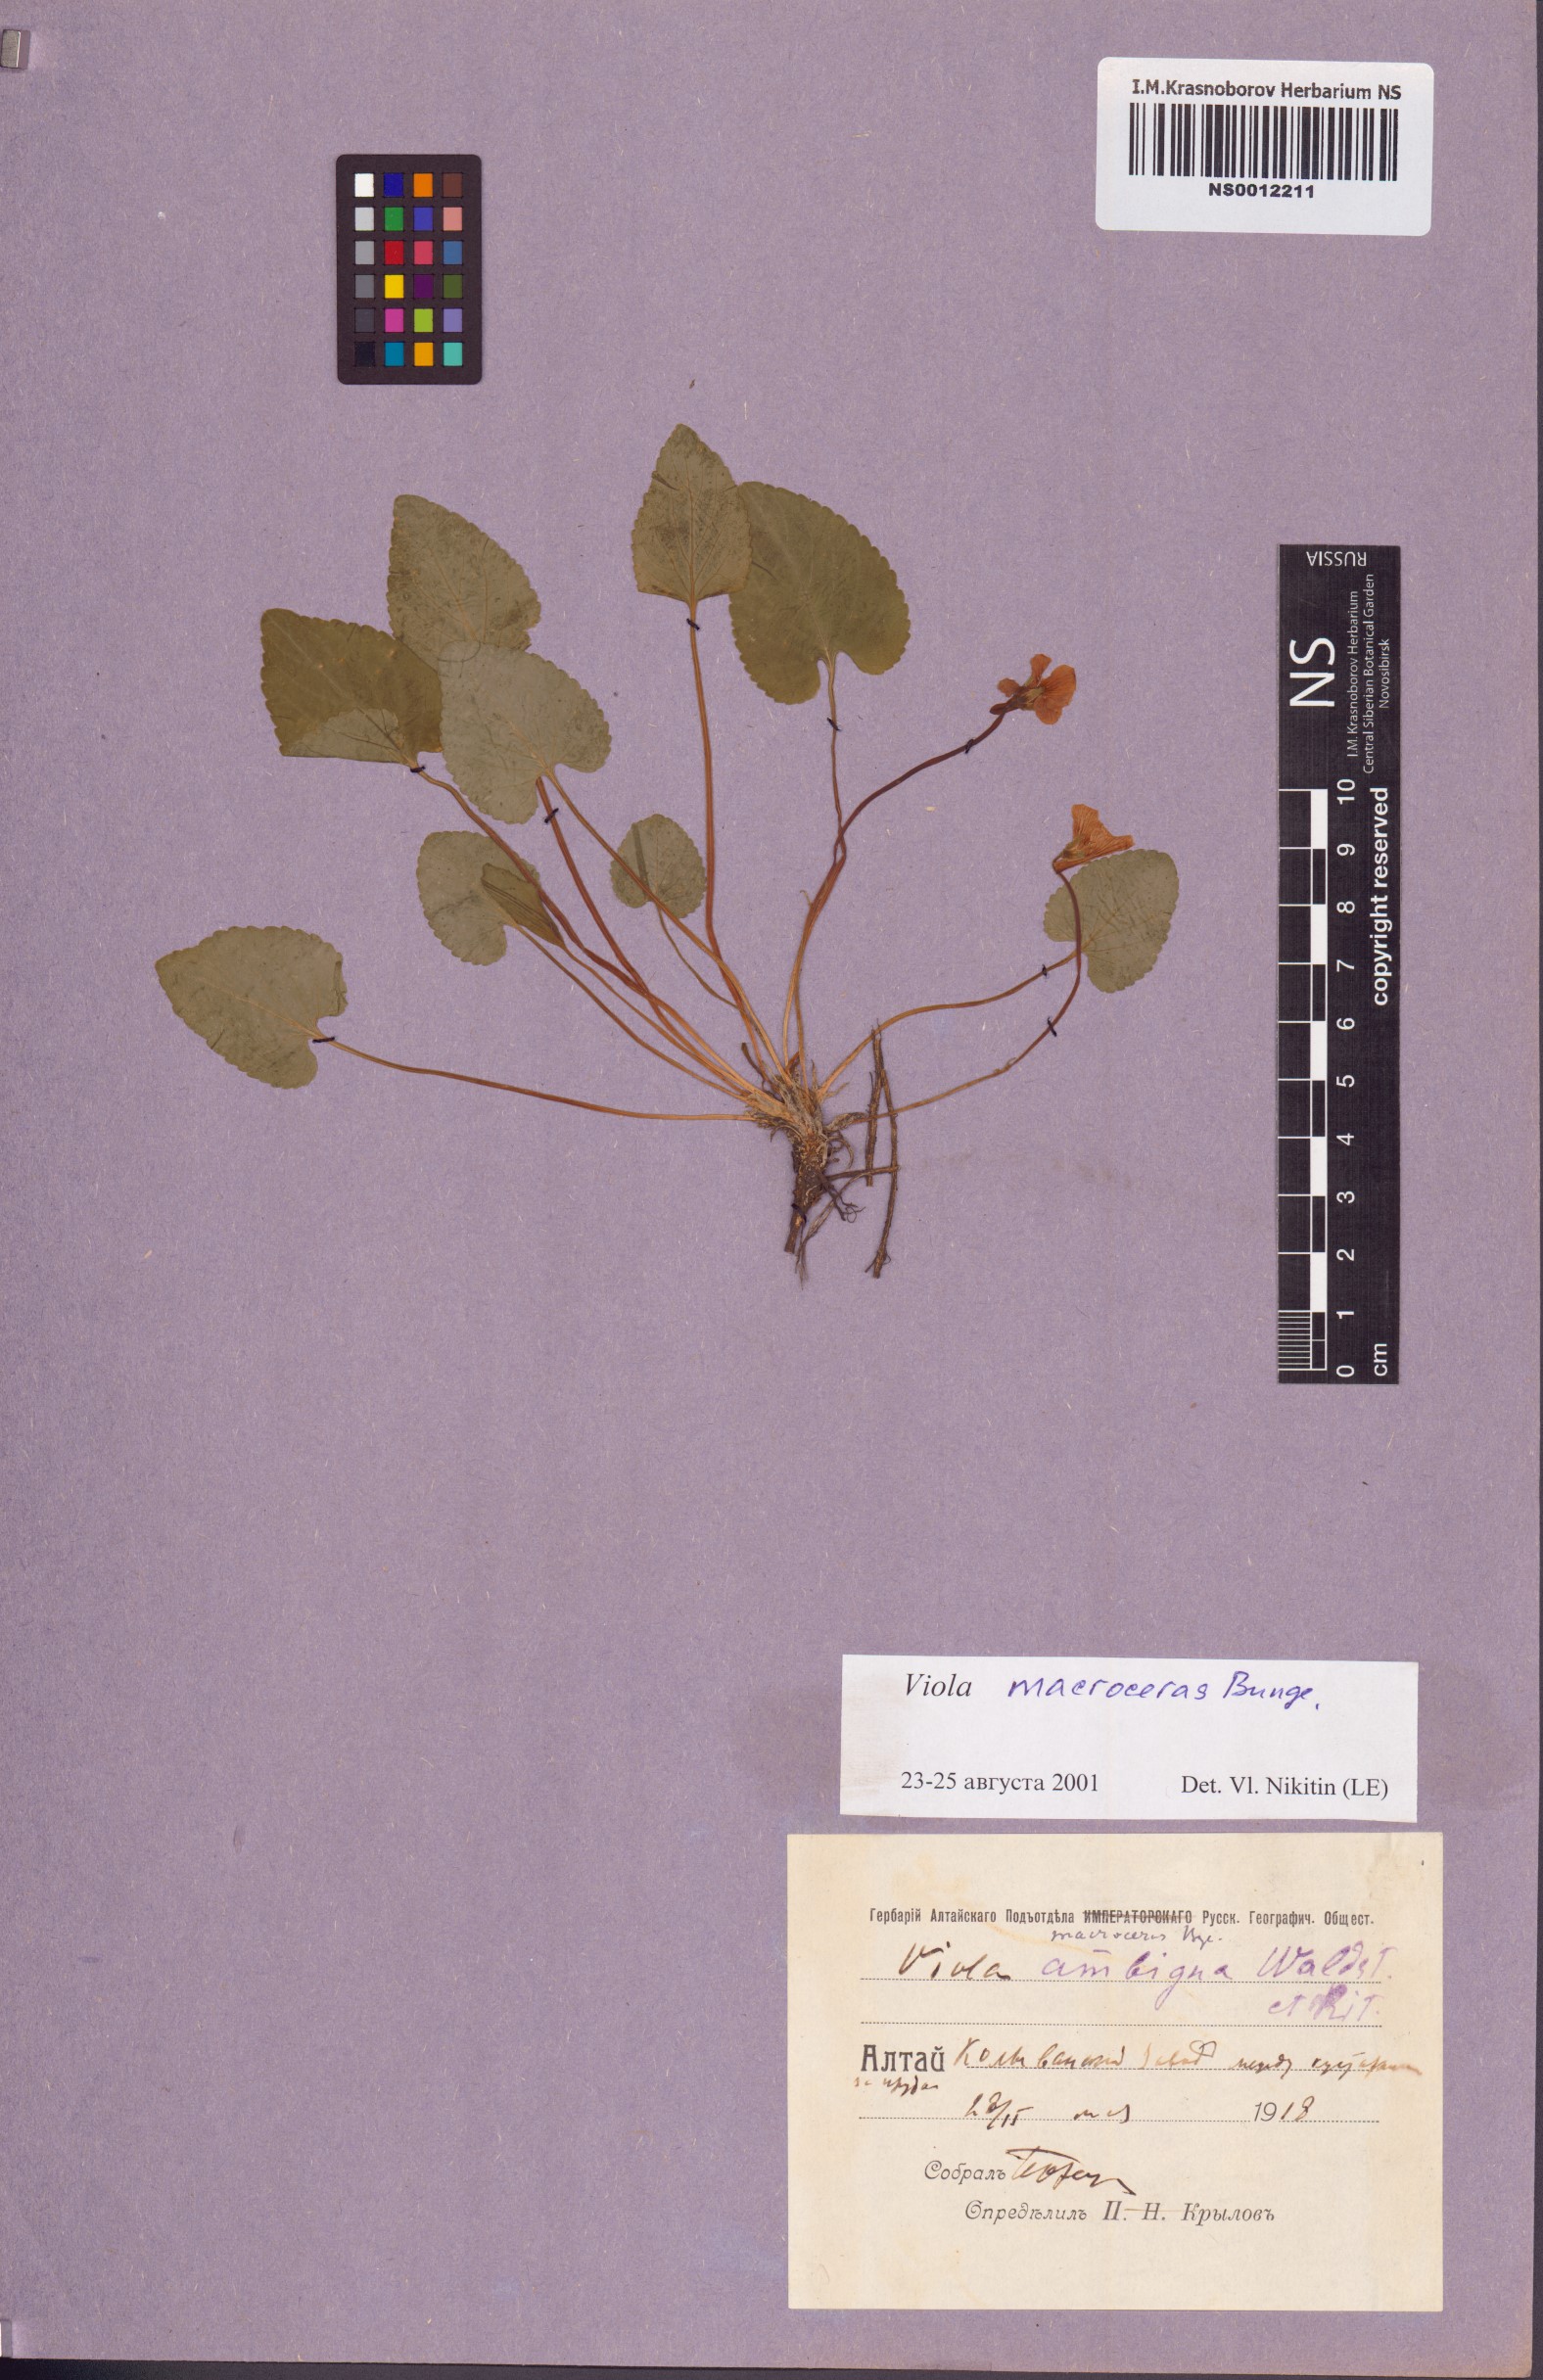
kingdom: Plantae
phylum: Tracheophyta
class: Magnoliopsida
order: Malpighiales
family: Violaceae
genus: Viola
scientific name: Viola macroceras
